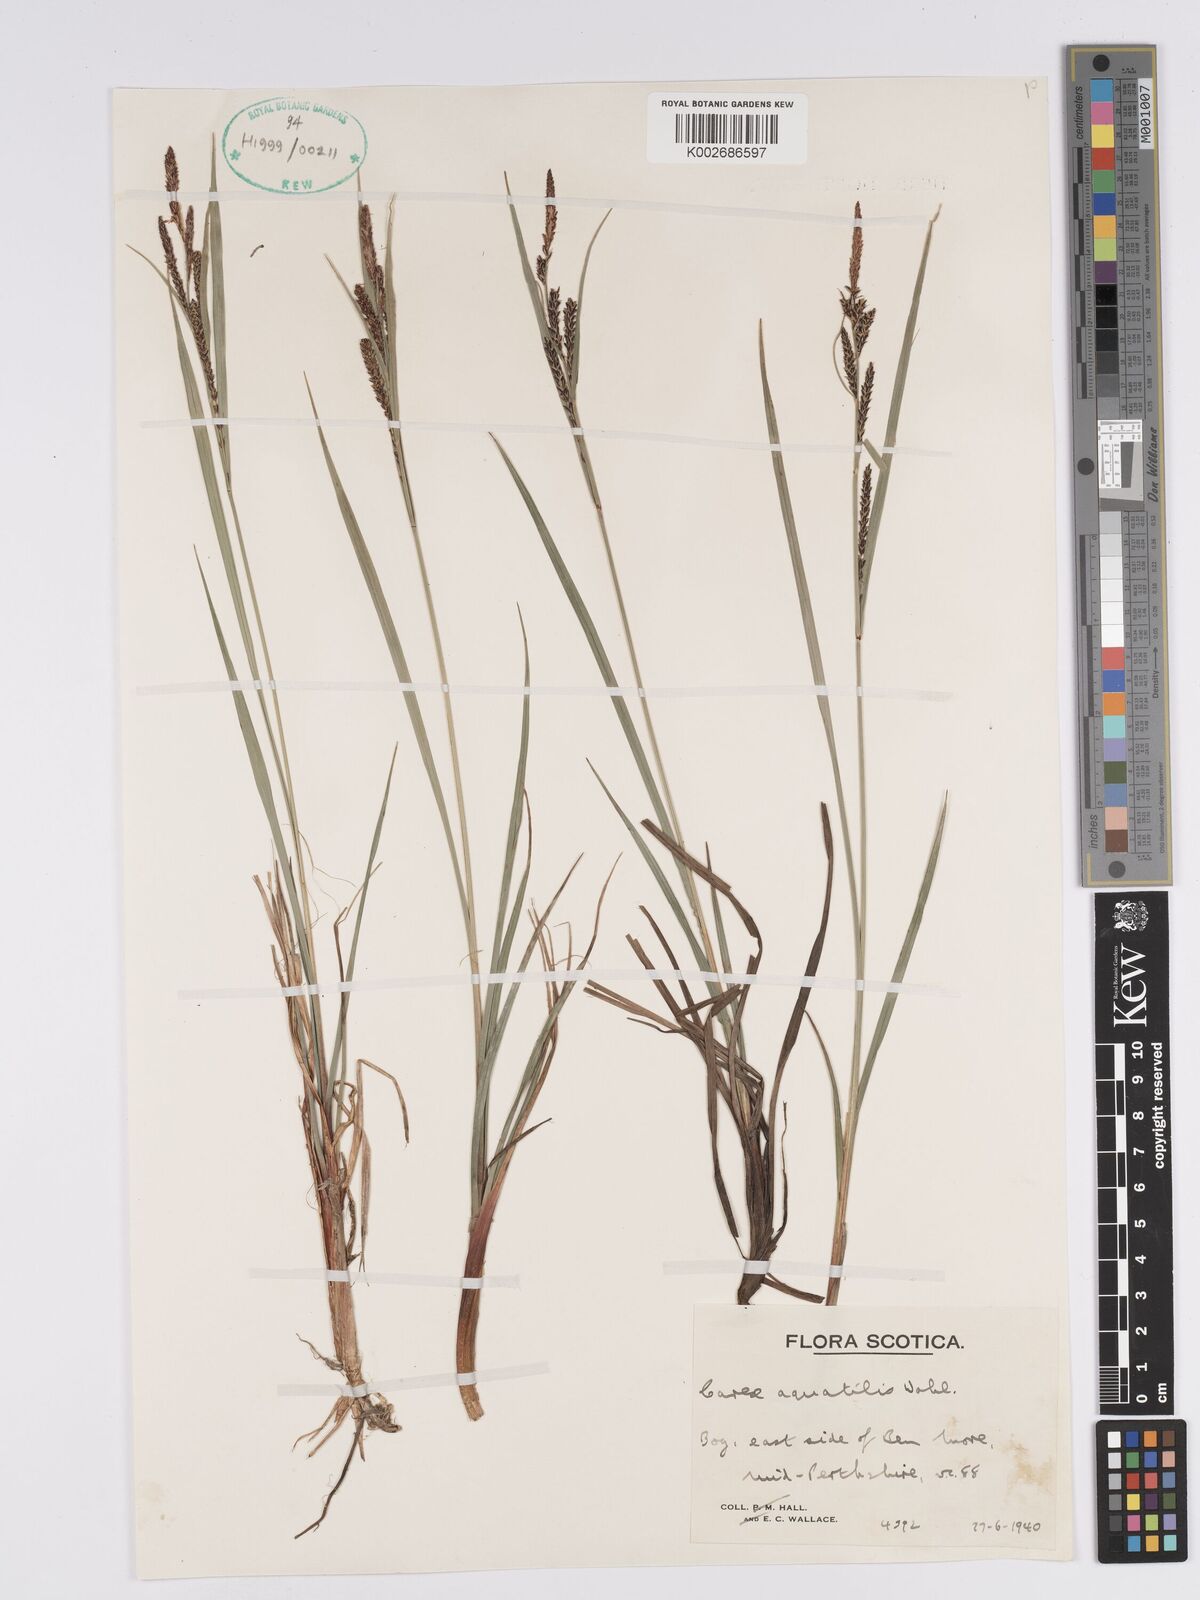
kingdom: Plantae
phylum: Tracheophyta
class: Liliopsida
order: Poales
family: Cyperaceae
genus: Carex
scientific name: Carex aquatilis
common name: Water sedge
